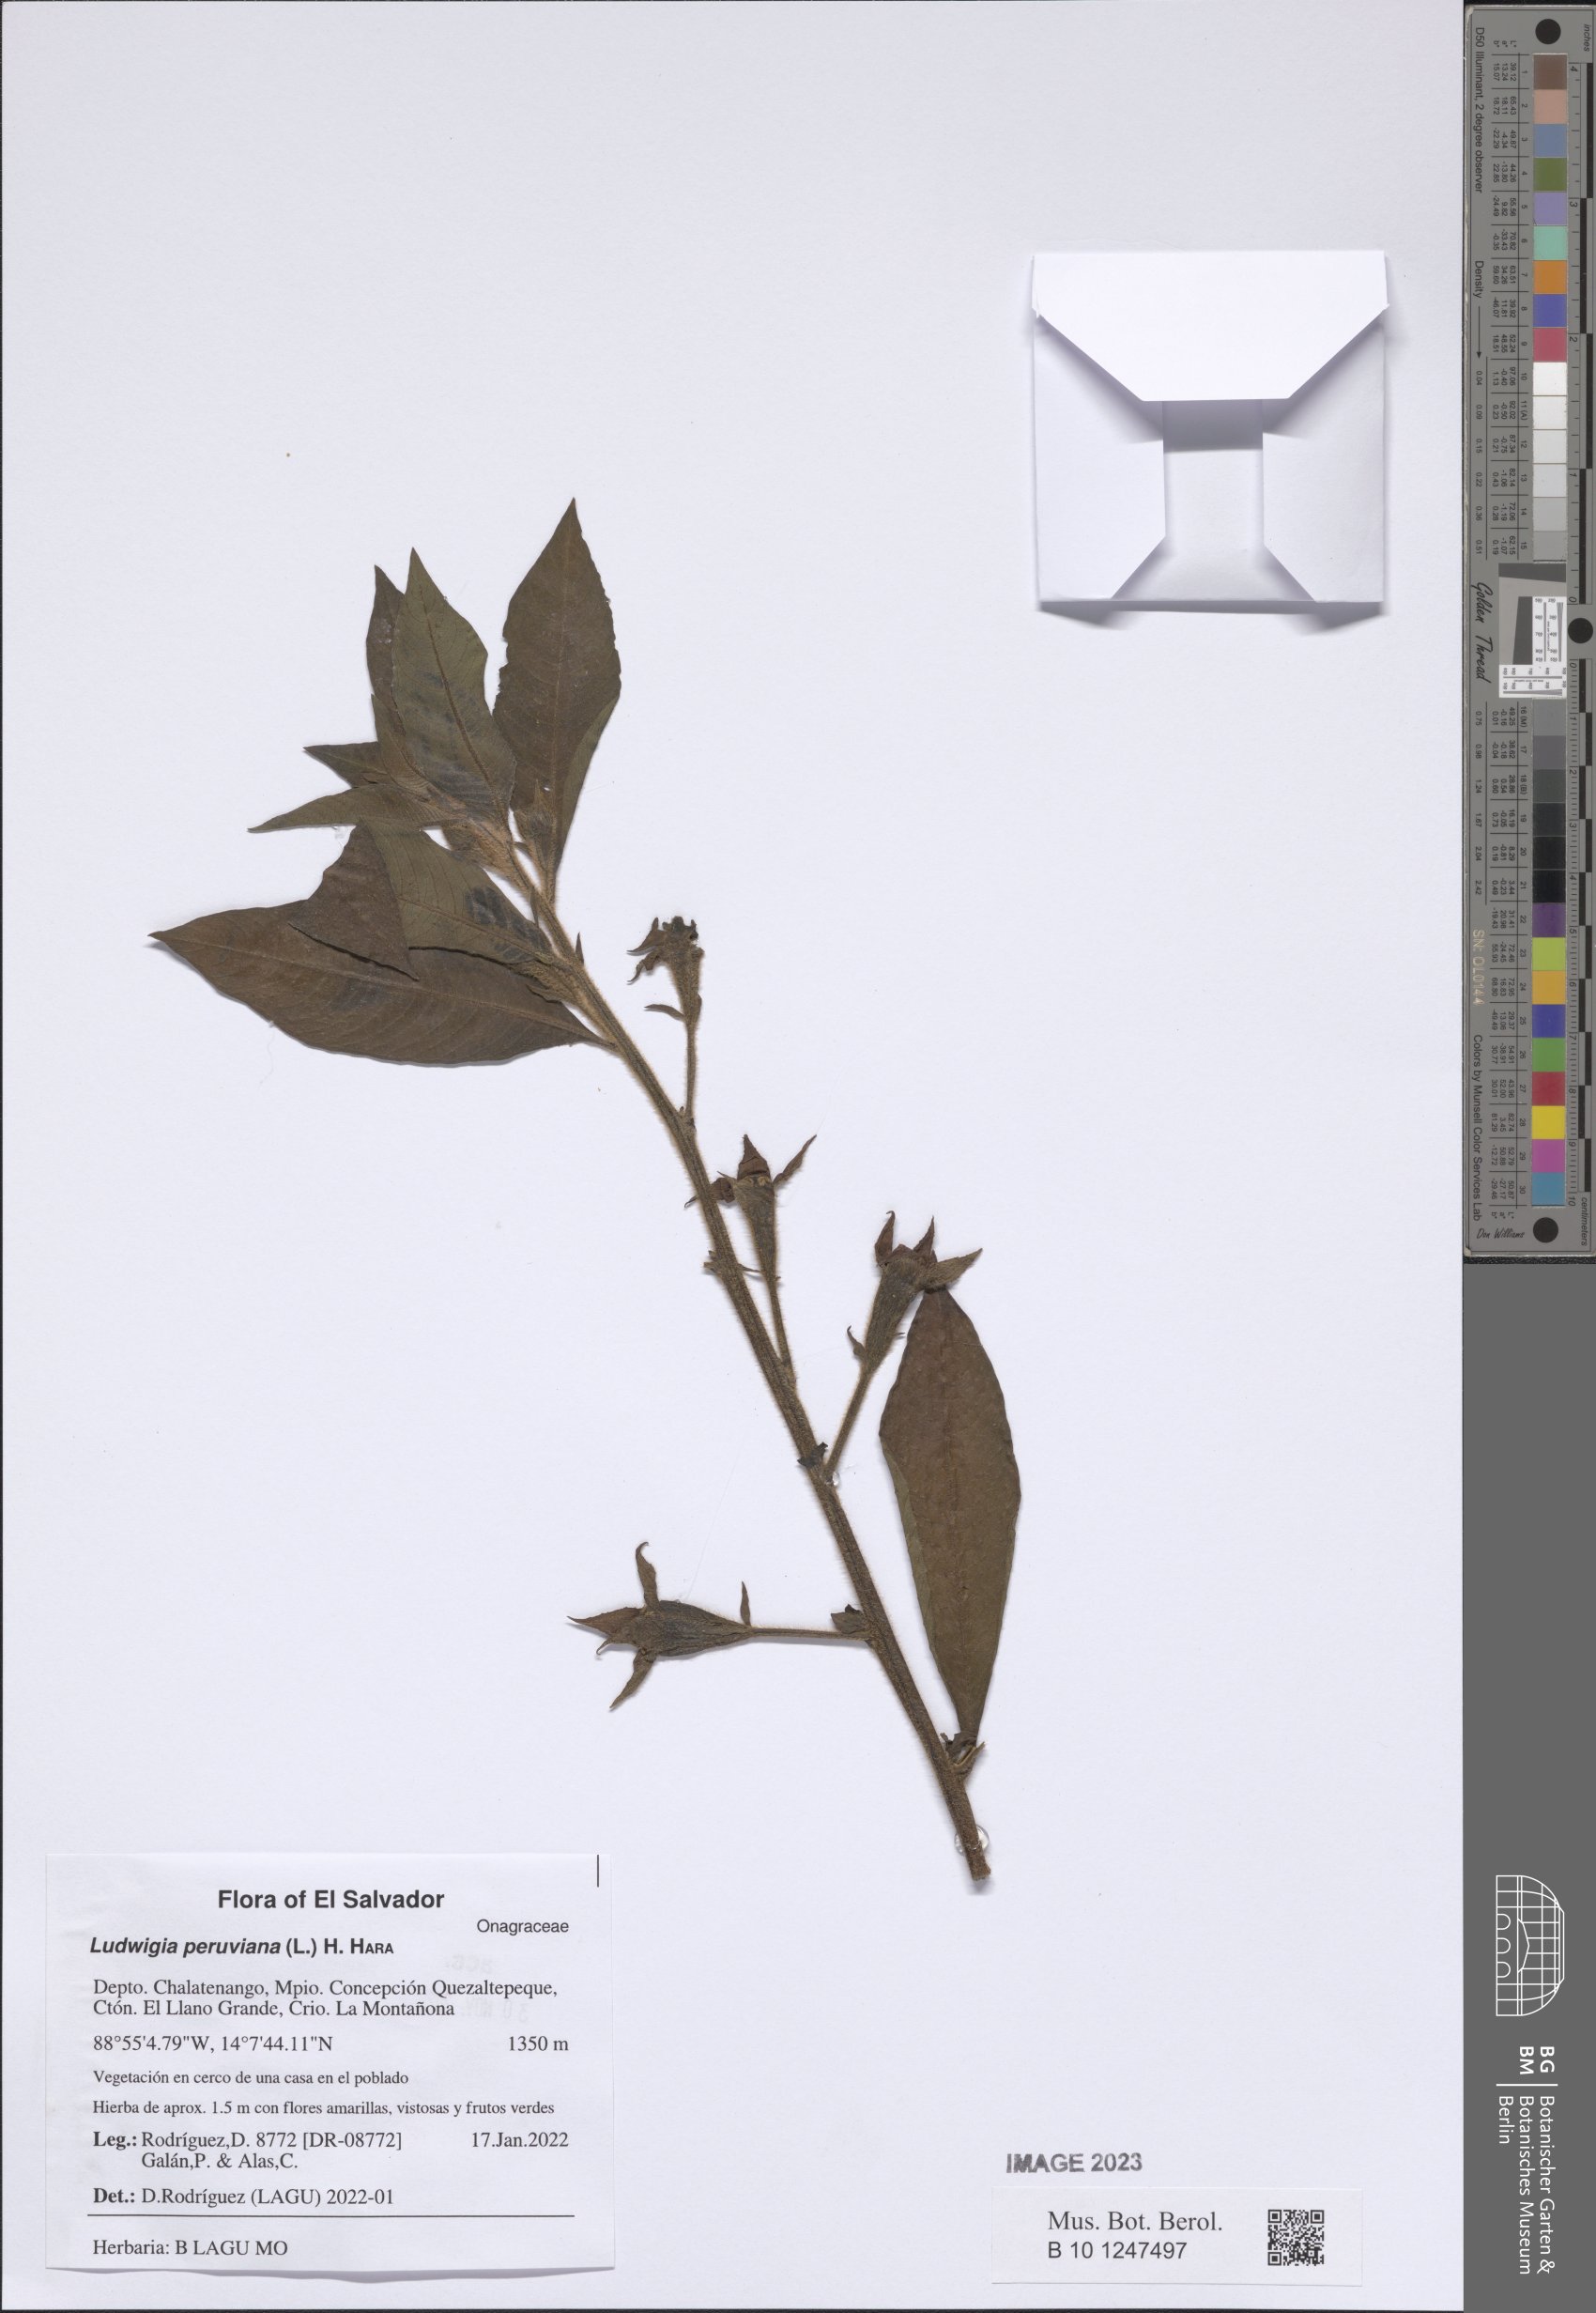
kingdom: Plantae
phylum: Tracheophyta
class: Magnoliopsida
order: Myrtales
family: Onagraceae
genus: Ludwigia
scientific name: Ludwigia peruviana
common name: Peruvian primrose-willow
